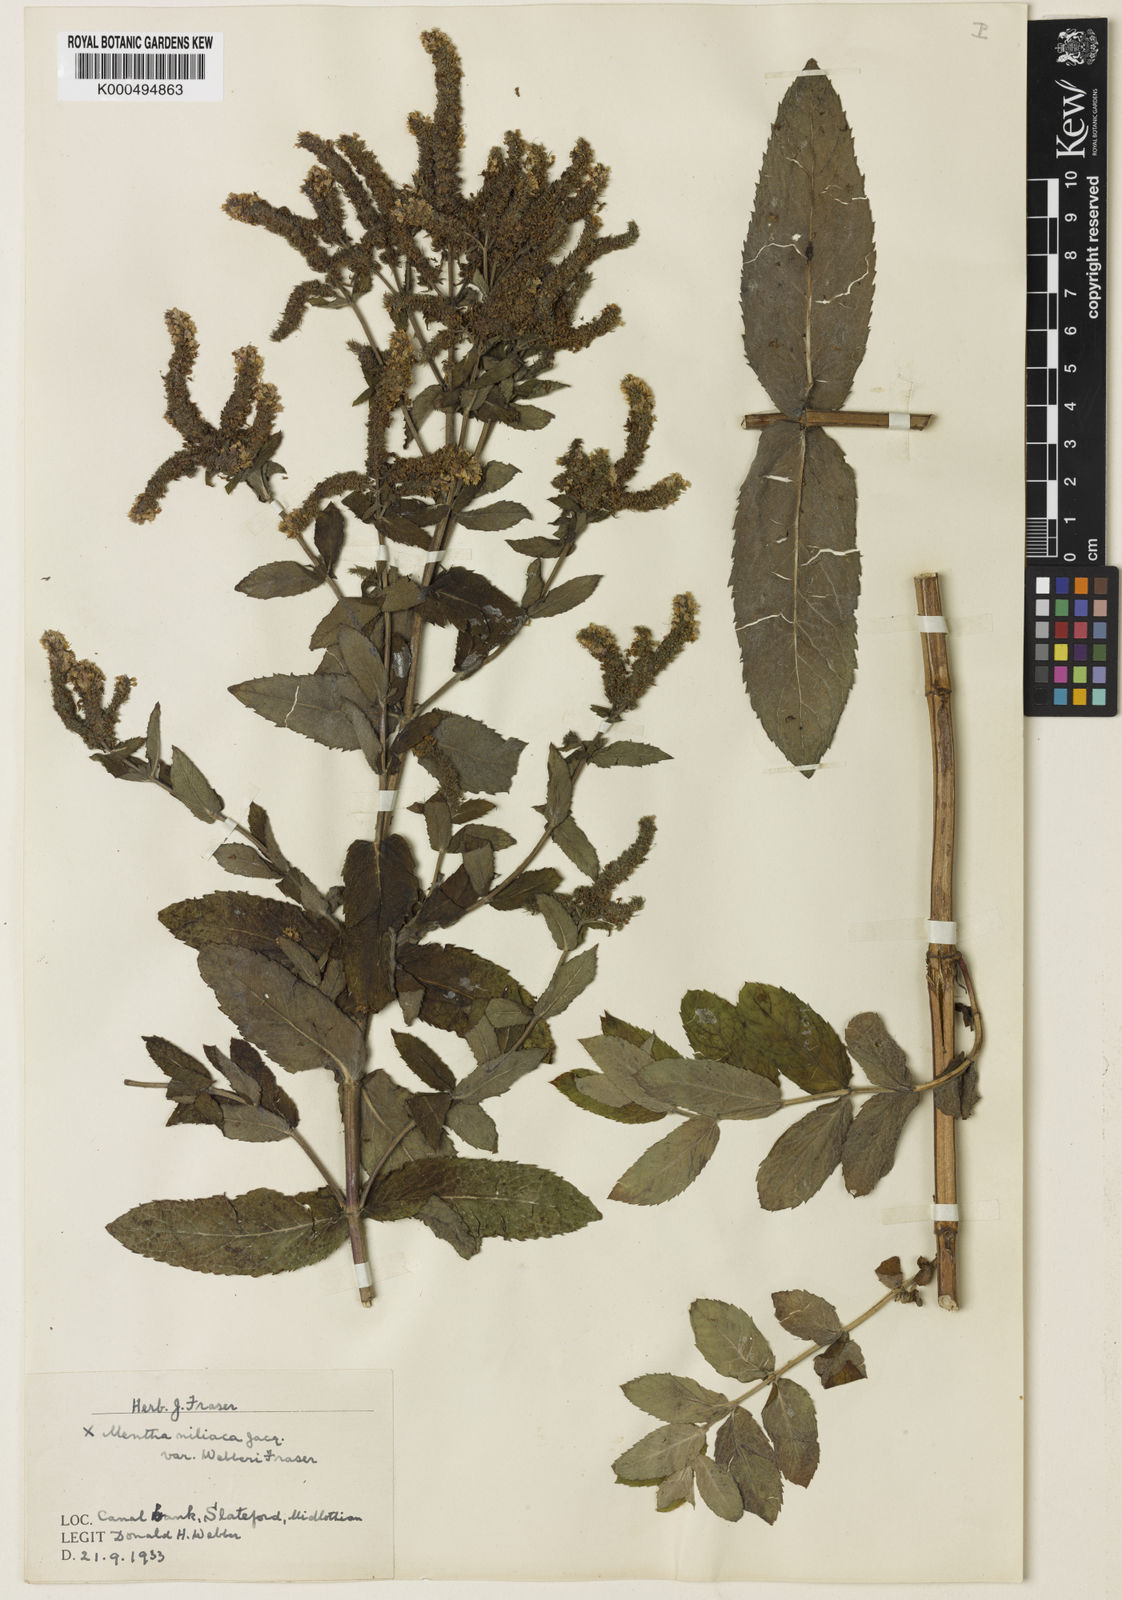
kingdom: Plantae
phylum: Tracheophyta
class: Magnoliopsida
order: Lamiales
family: Lamiaceae
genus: Mentha
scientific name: Mentha villosa
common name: Apple mint
